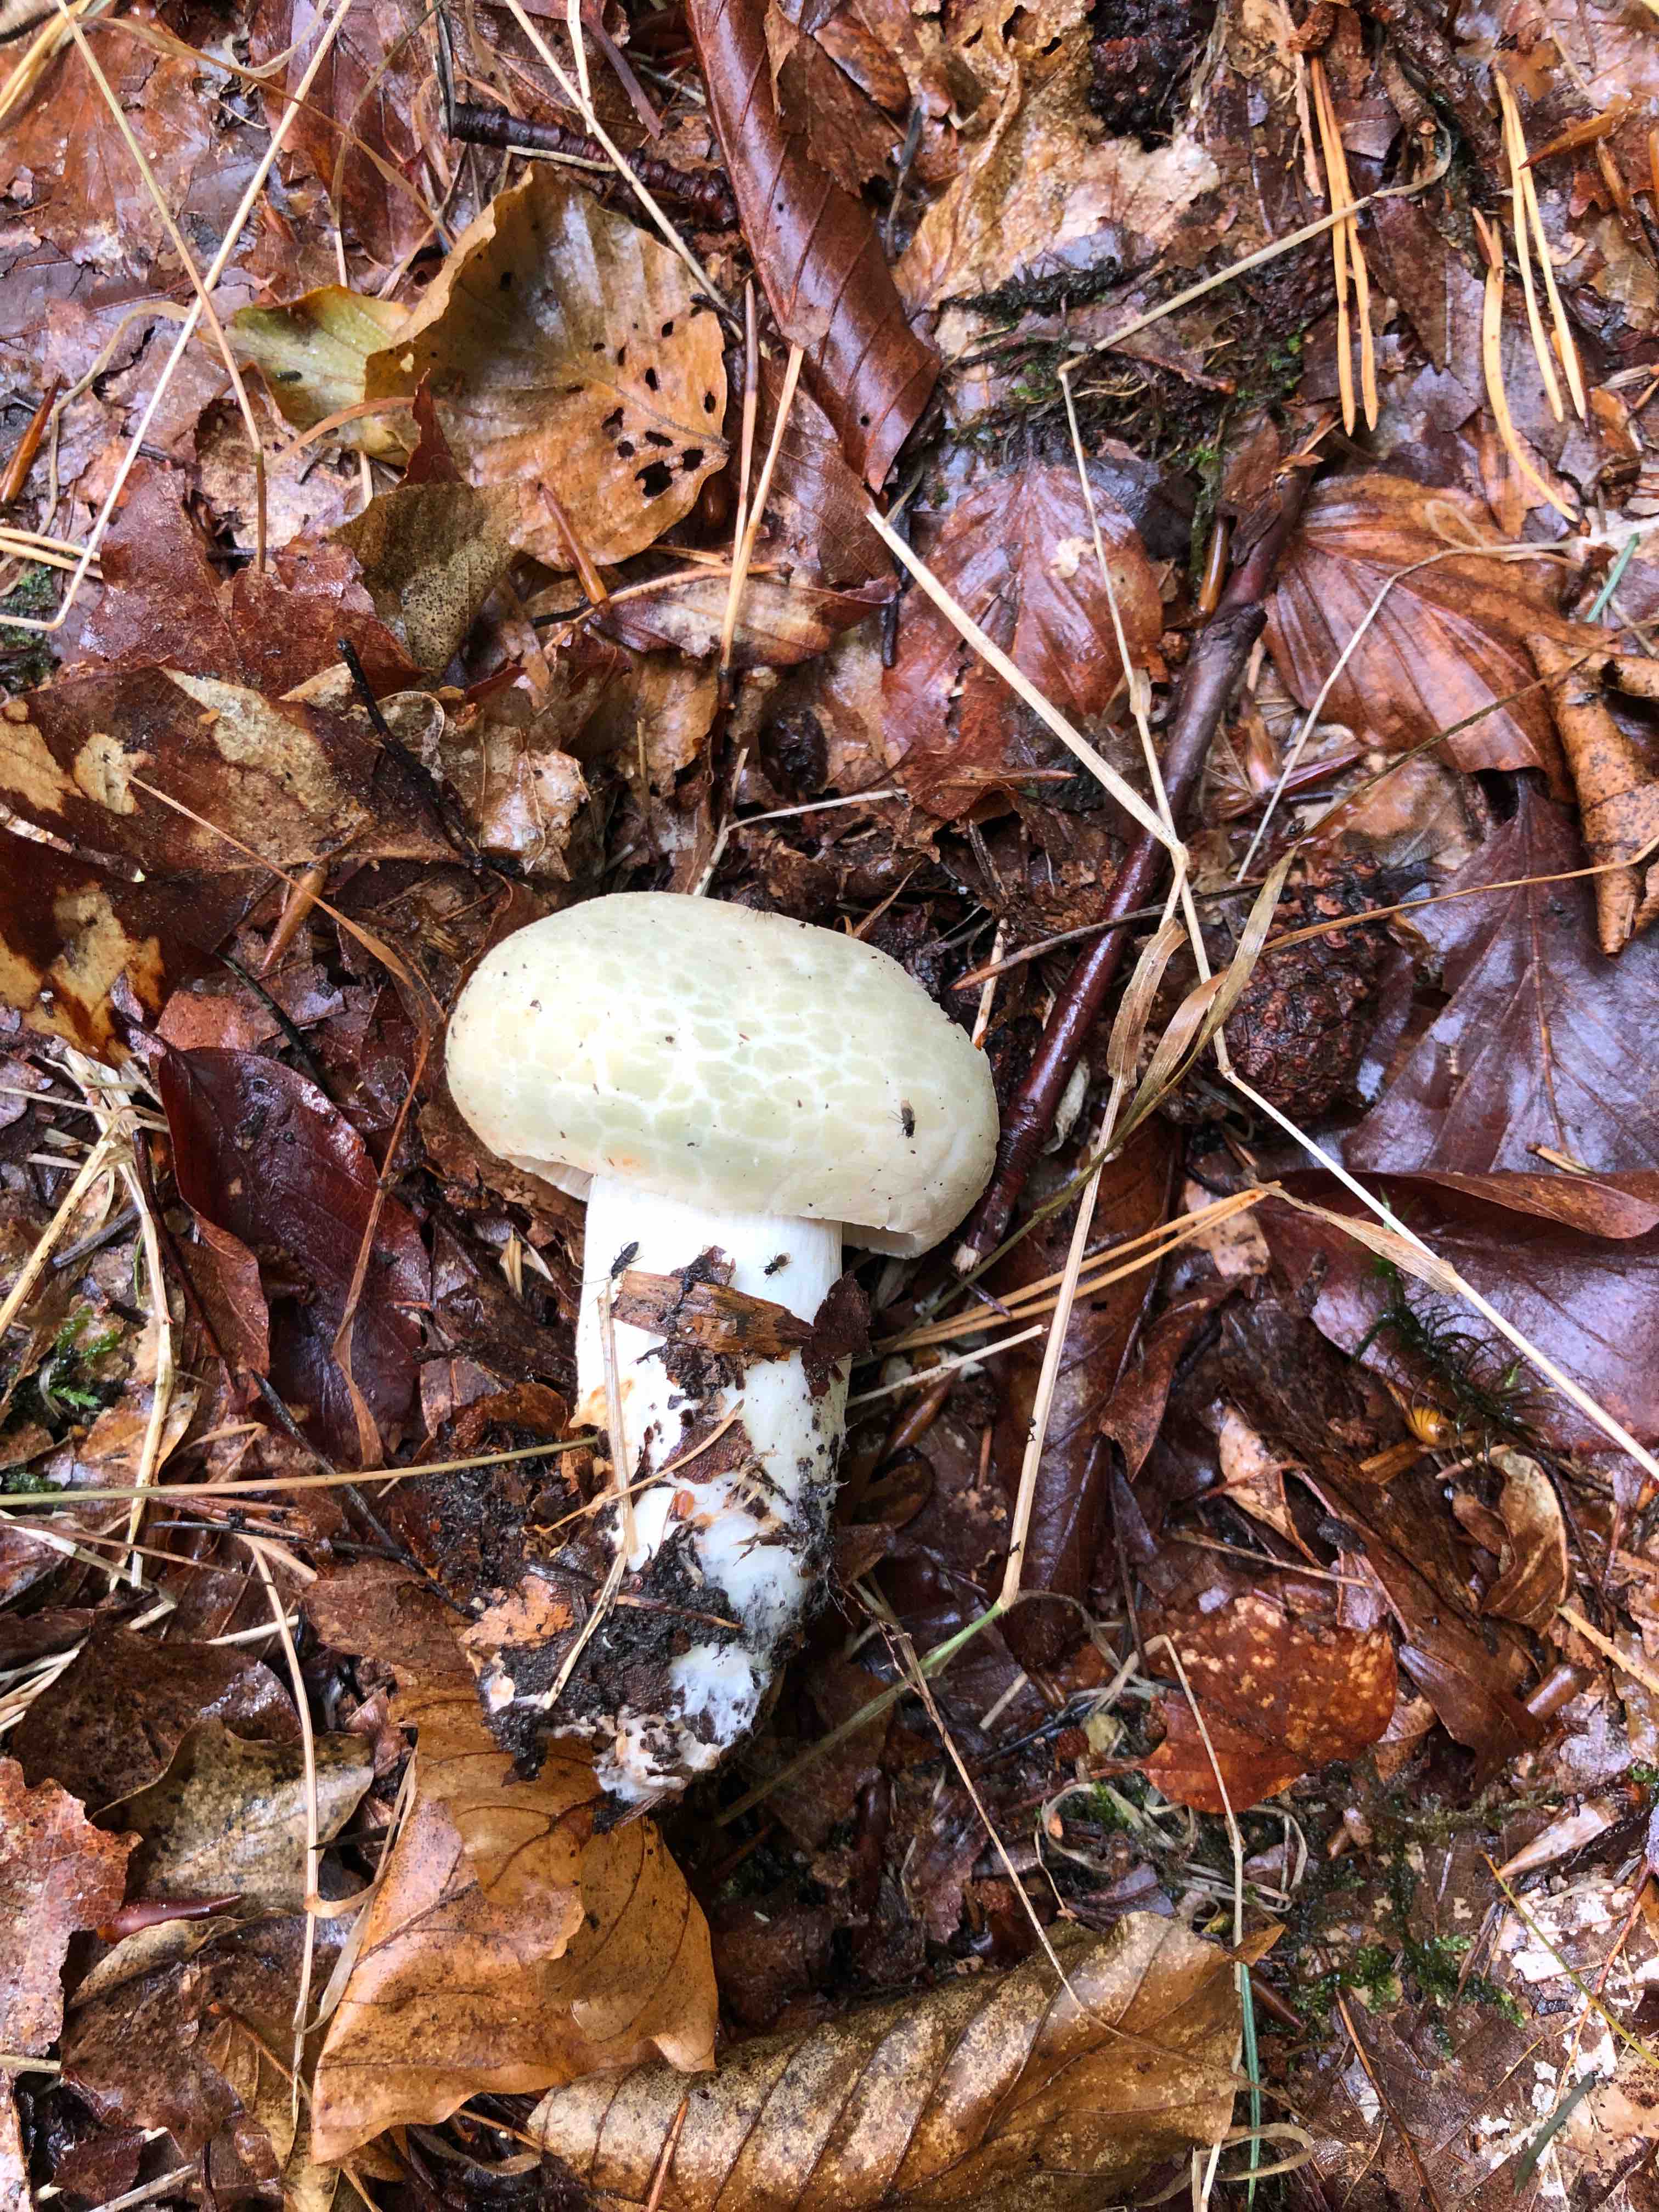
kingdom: Fungi
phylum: Basidiomycota
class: Agaricomycetes
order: Russulales
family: Russulaceae
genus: Russula
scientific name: Russula virescens
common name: spanskgrøn skørhat
